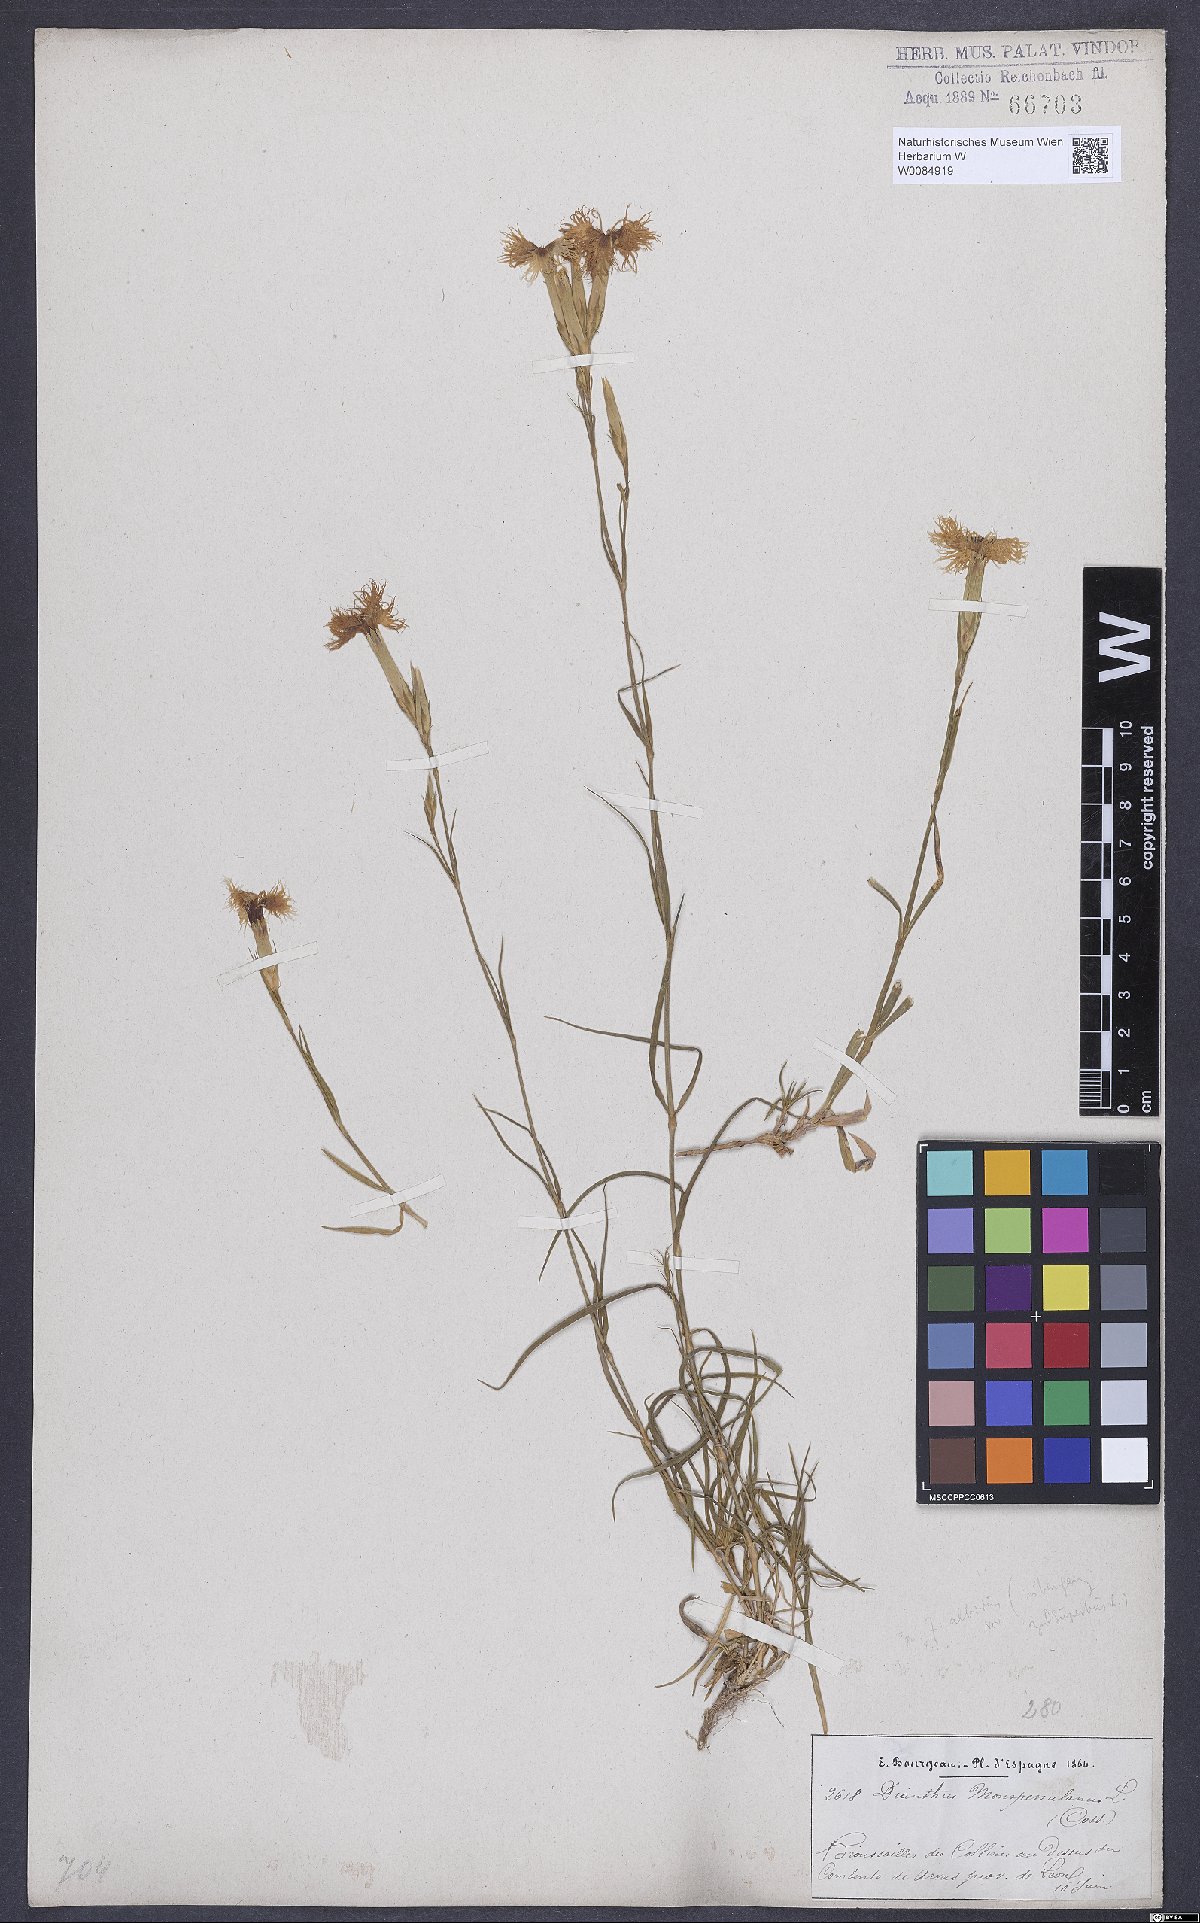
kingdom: Plantae
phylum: Tracheophyta
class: Magnoliopsida
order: Caryophyllales
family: Caryophyllaceae
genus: Dianthus
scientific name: Dianthus hyssopifolius
